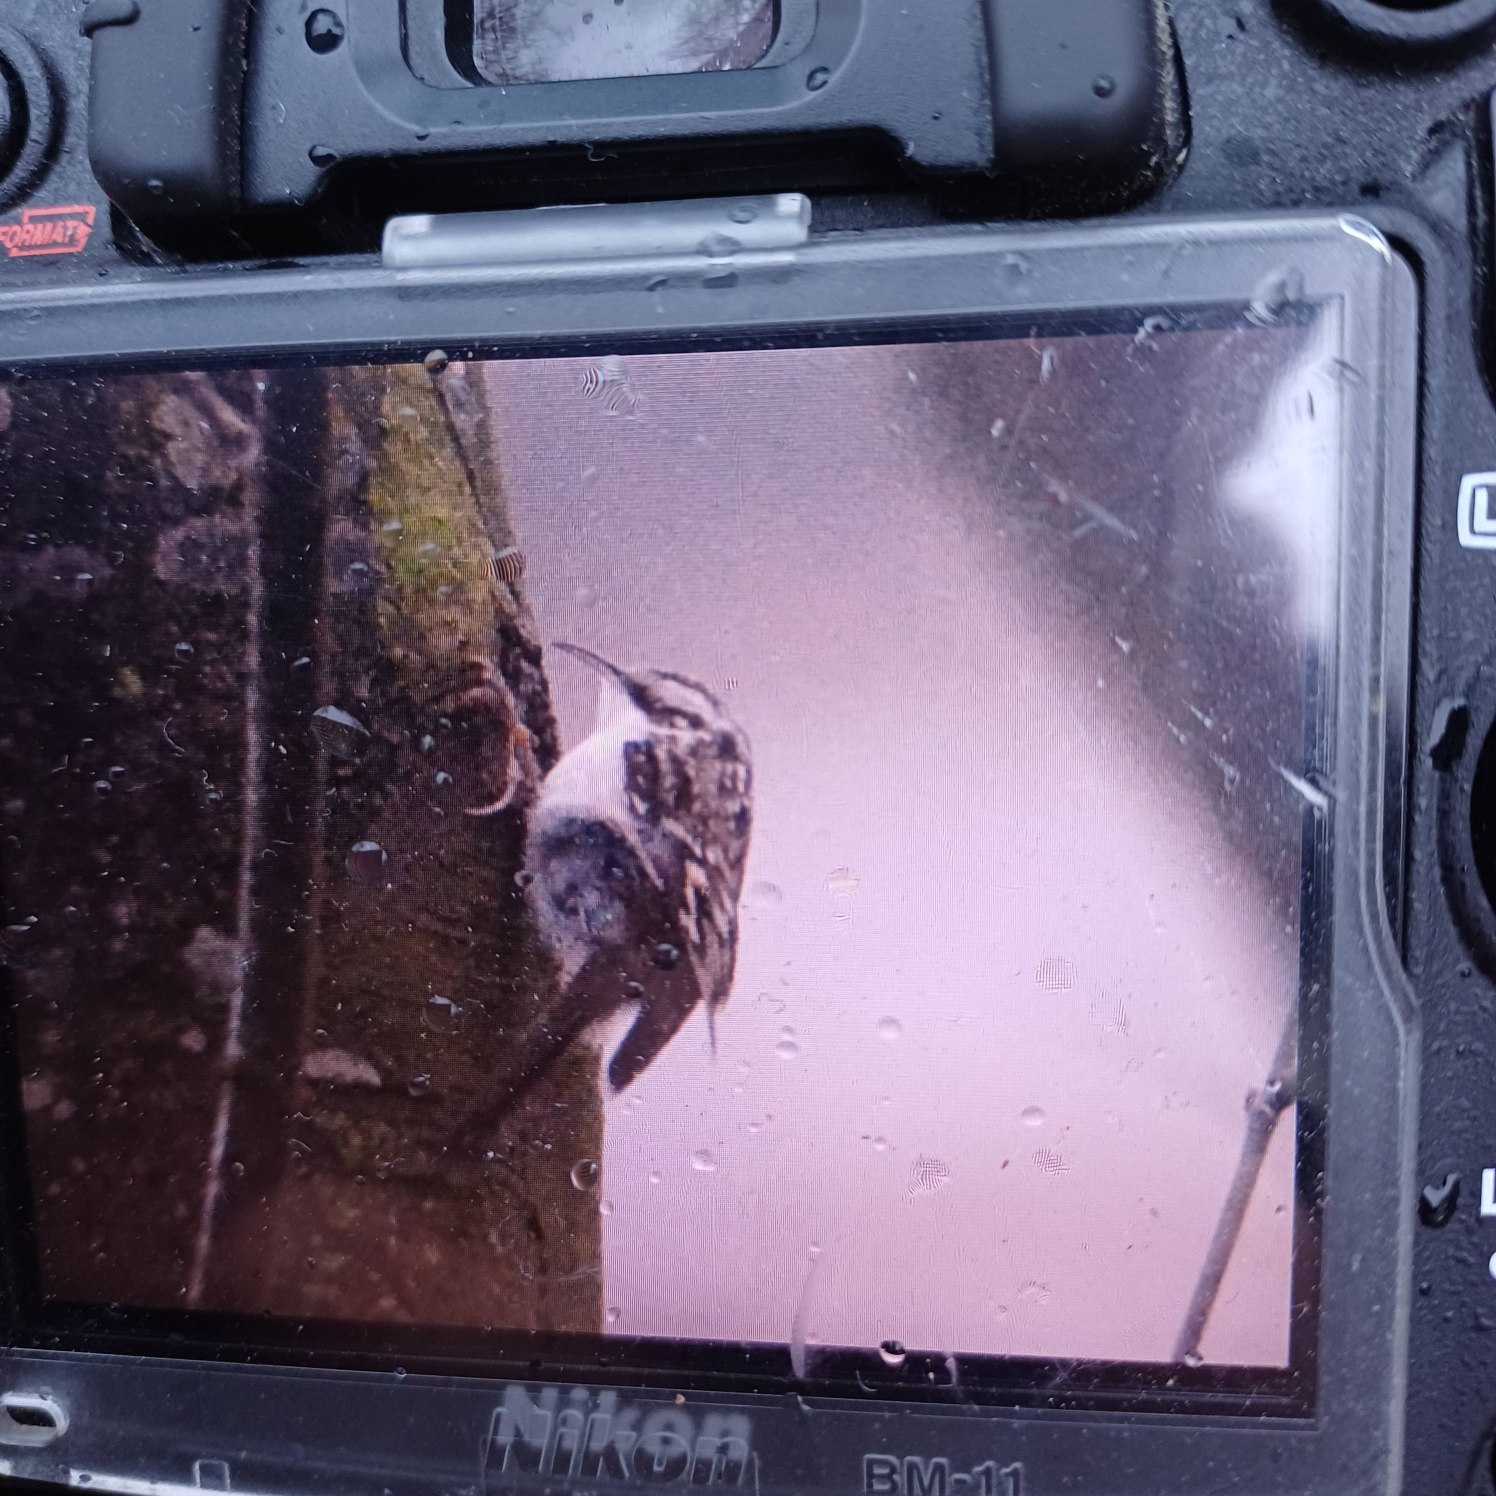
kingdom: Animalia
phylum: Chordata
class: Aves
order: Passeriformes
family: Certhiidae
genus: Certhia
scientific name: Certhia familiaris
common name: Træløber
